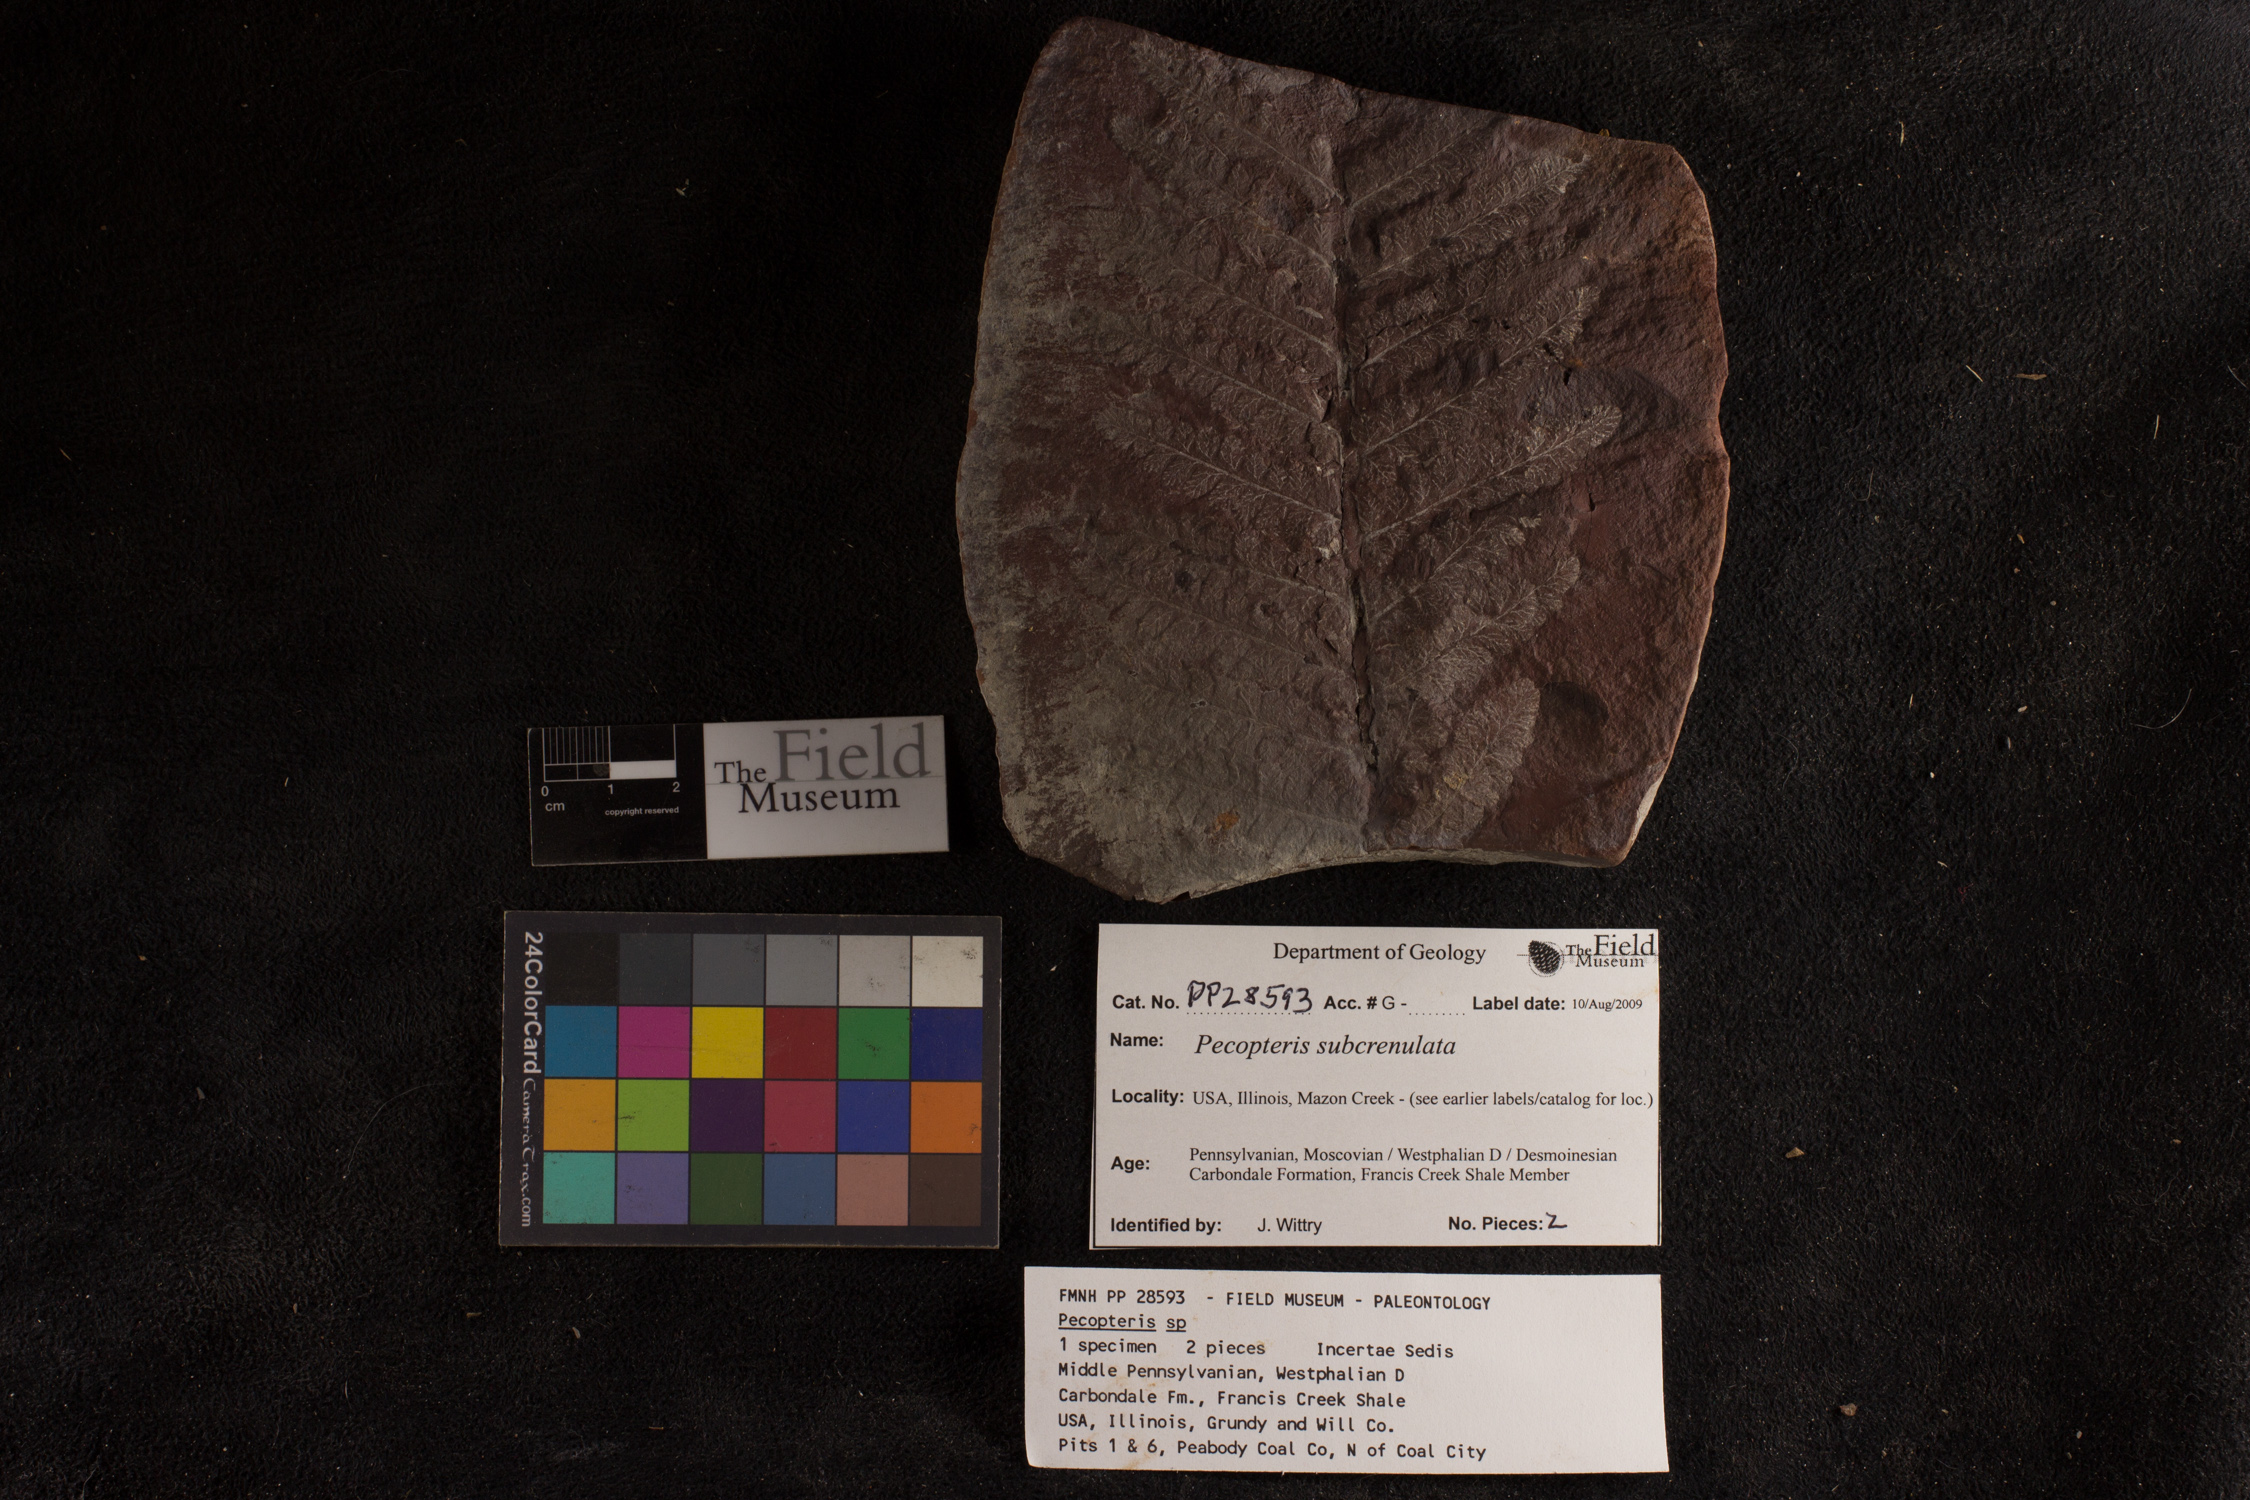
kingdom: Plantae
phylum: Tracheophyta
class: Polypodiopsida
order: Marattiales
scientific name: Marattiales
